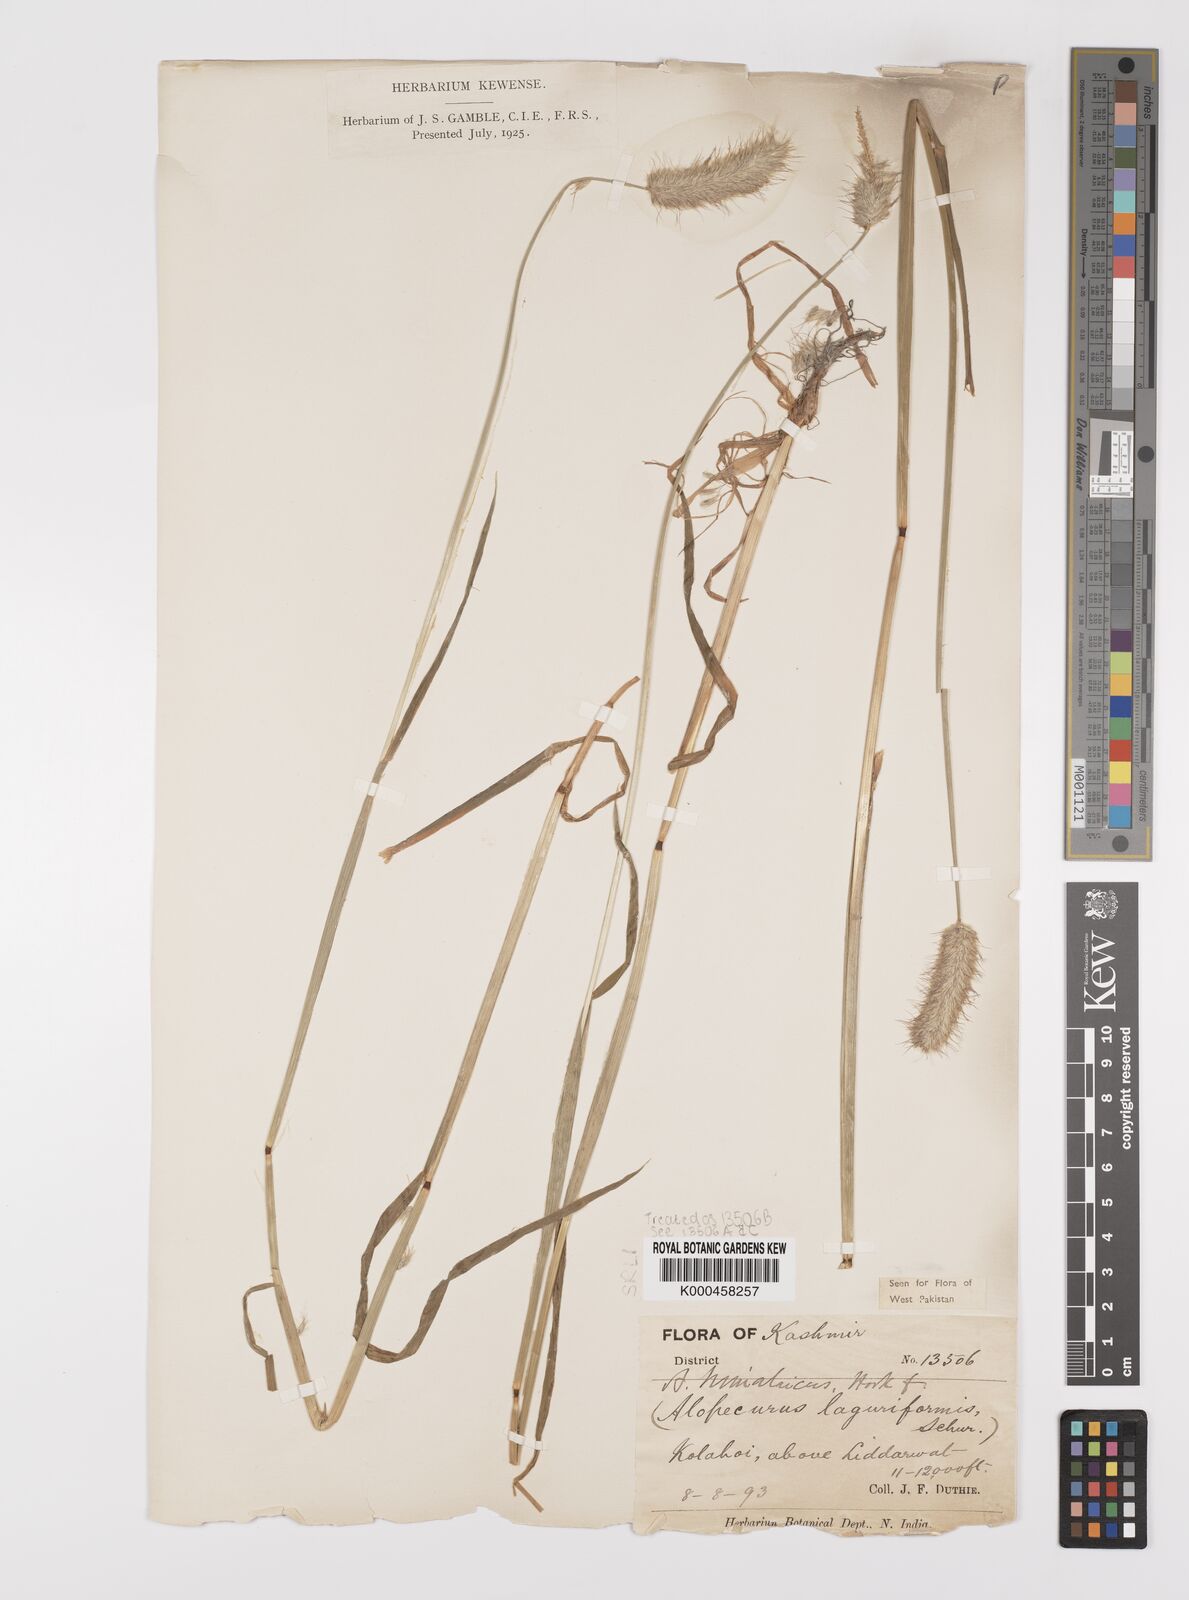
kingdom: Plantae
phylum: Tracheophyta
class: Liliopsida
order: Poales
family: Poaceae
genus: Alopecurus
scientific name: Alopecurus himalaicus
